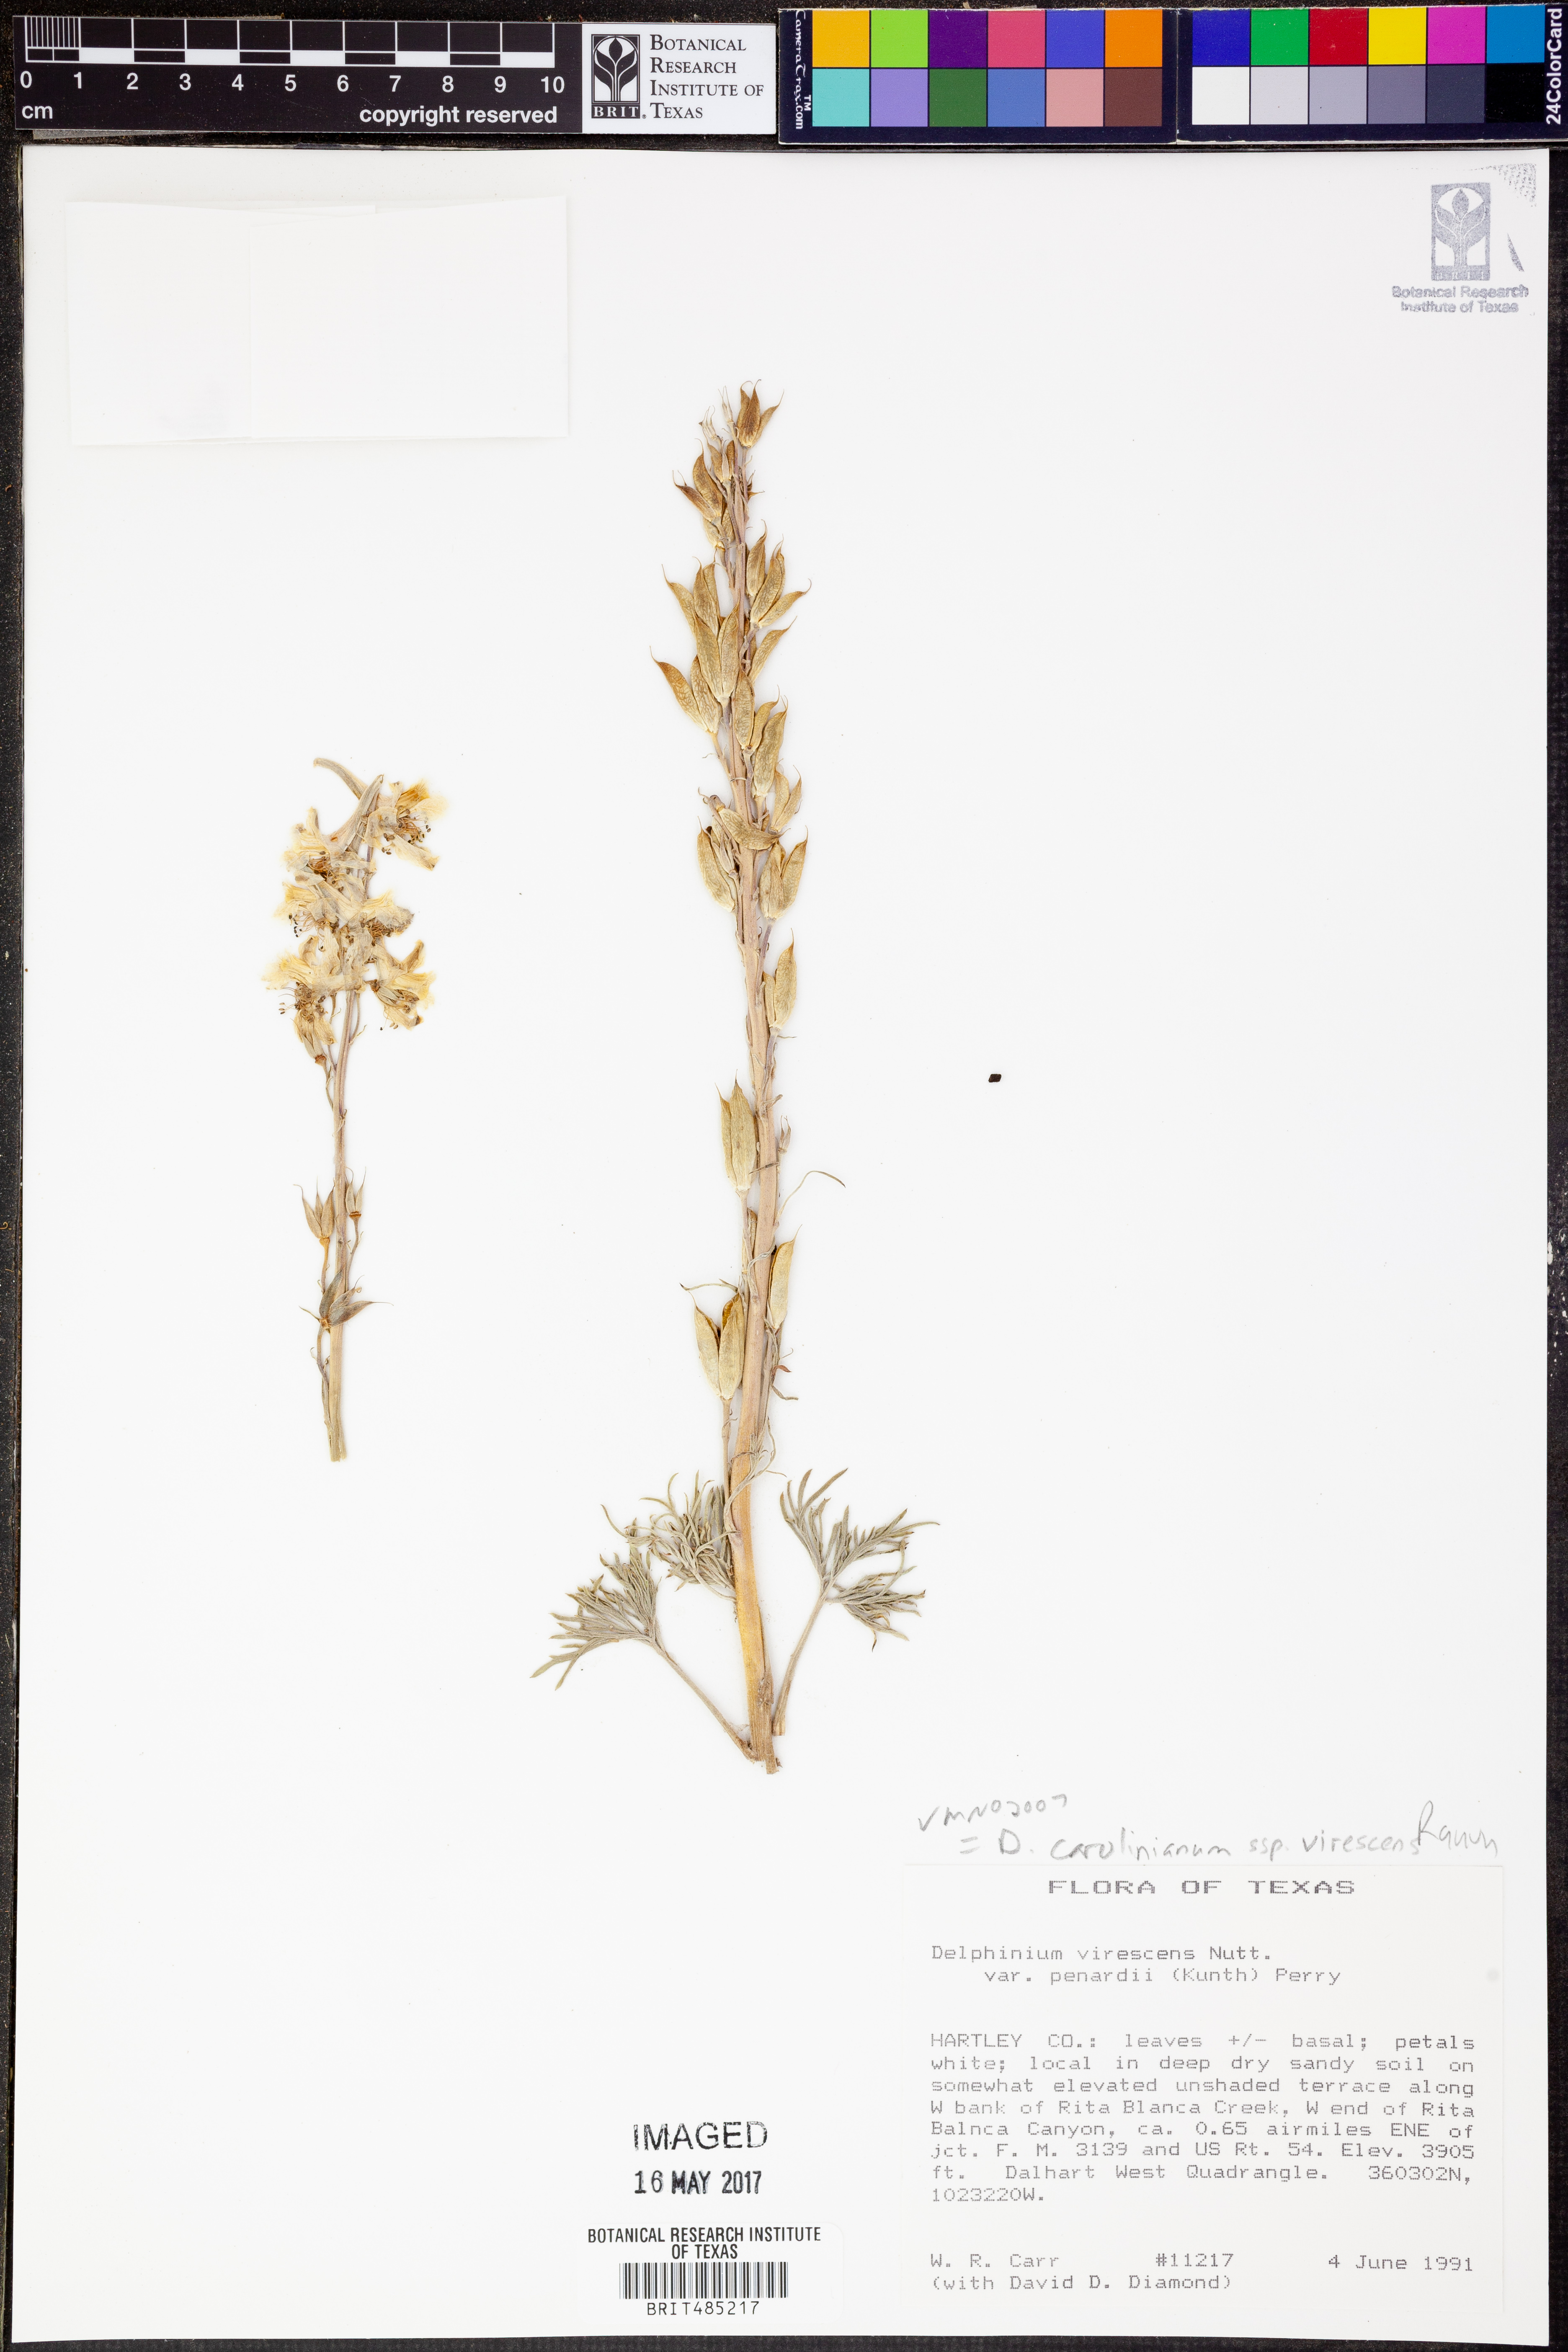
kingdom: Plantae
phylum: Tracheophyta
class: Magnoliopsida
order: Ranunculales
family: Ranunculaceae
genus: Delphinium
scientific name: Delphinium carolinianum
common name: Carolina larkspur
